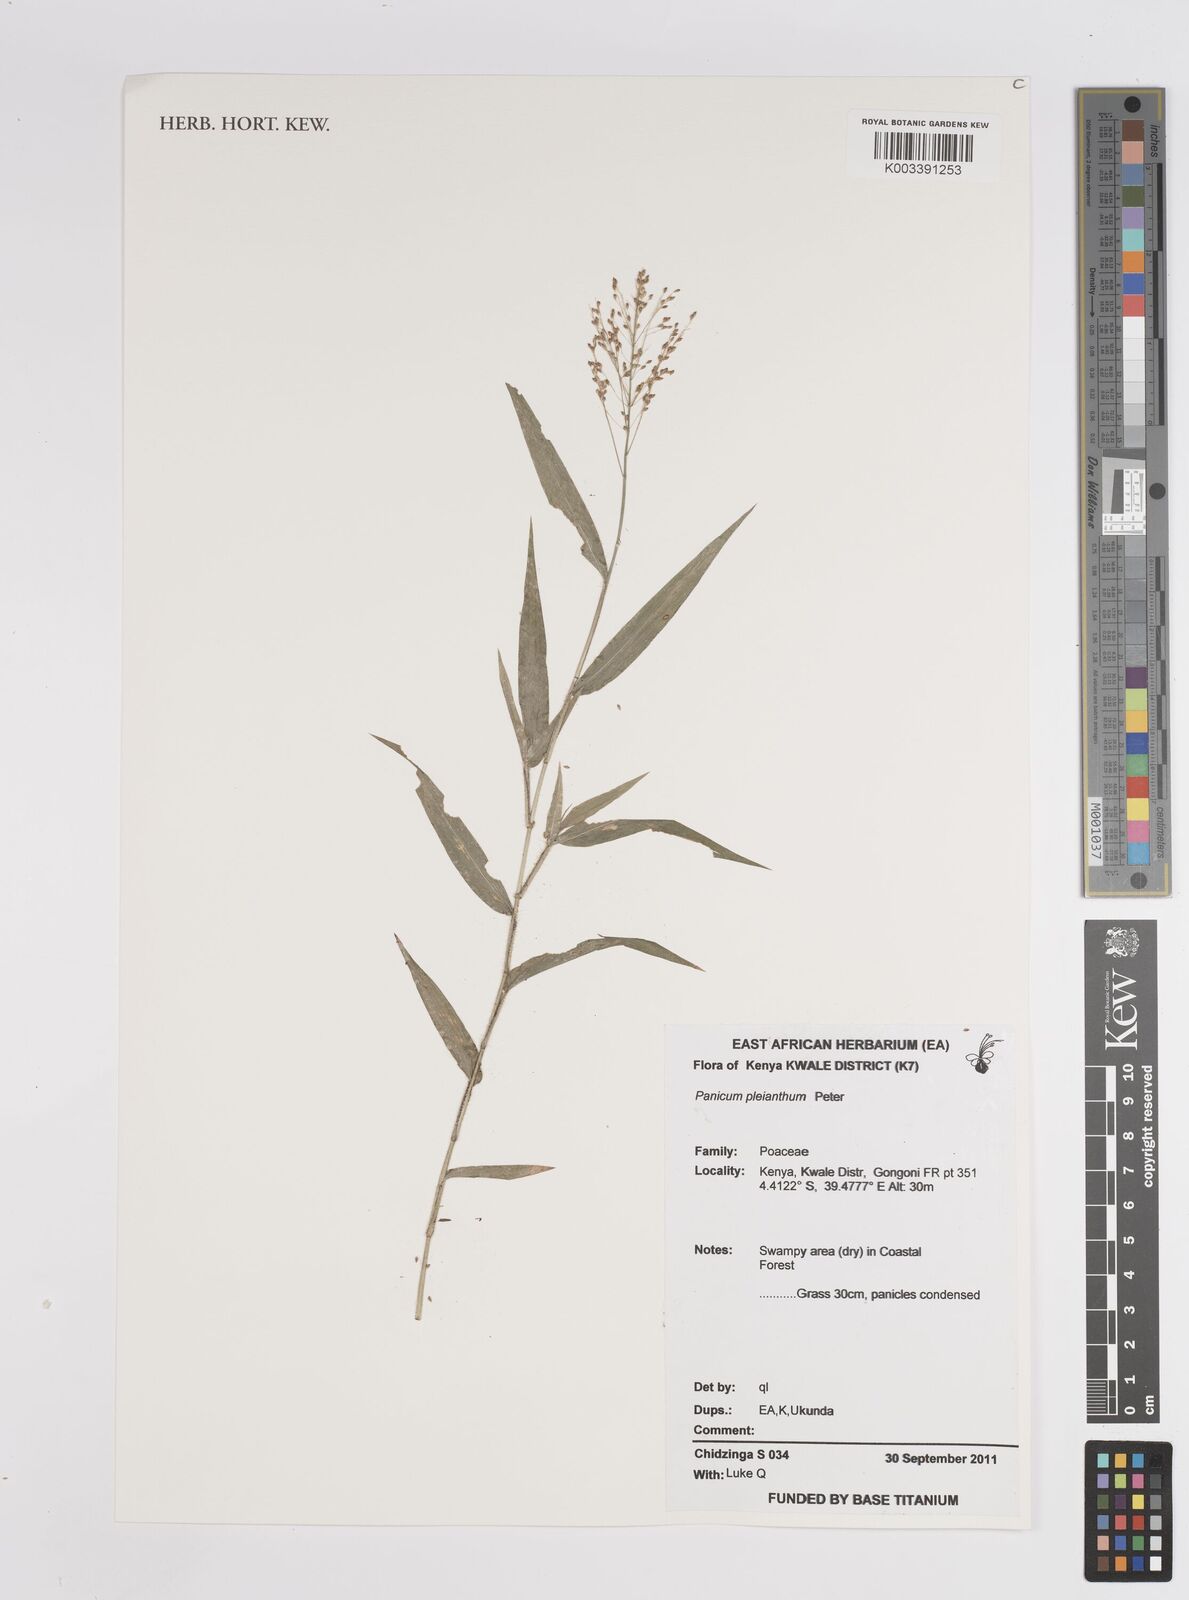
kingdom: Plantae
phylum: Tracheophyta
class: Liliopsida
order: Poales
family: Poaceae
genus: Panicum
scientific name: Panicum pleianthum
